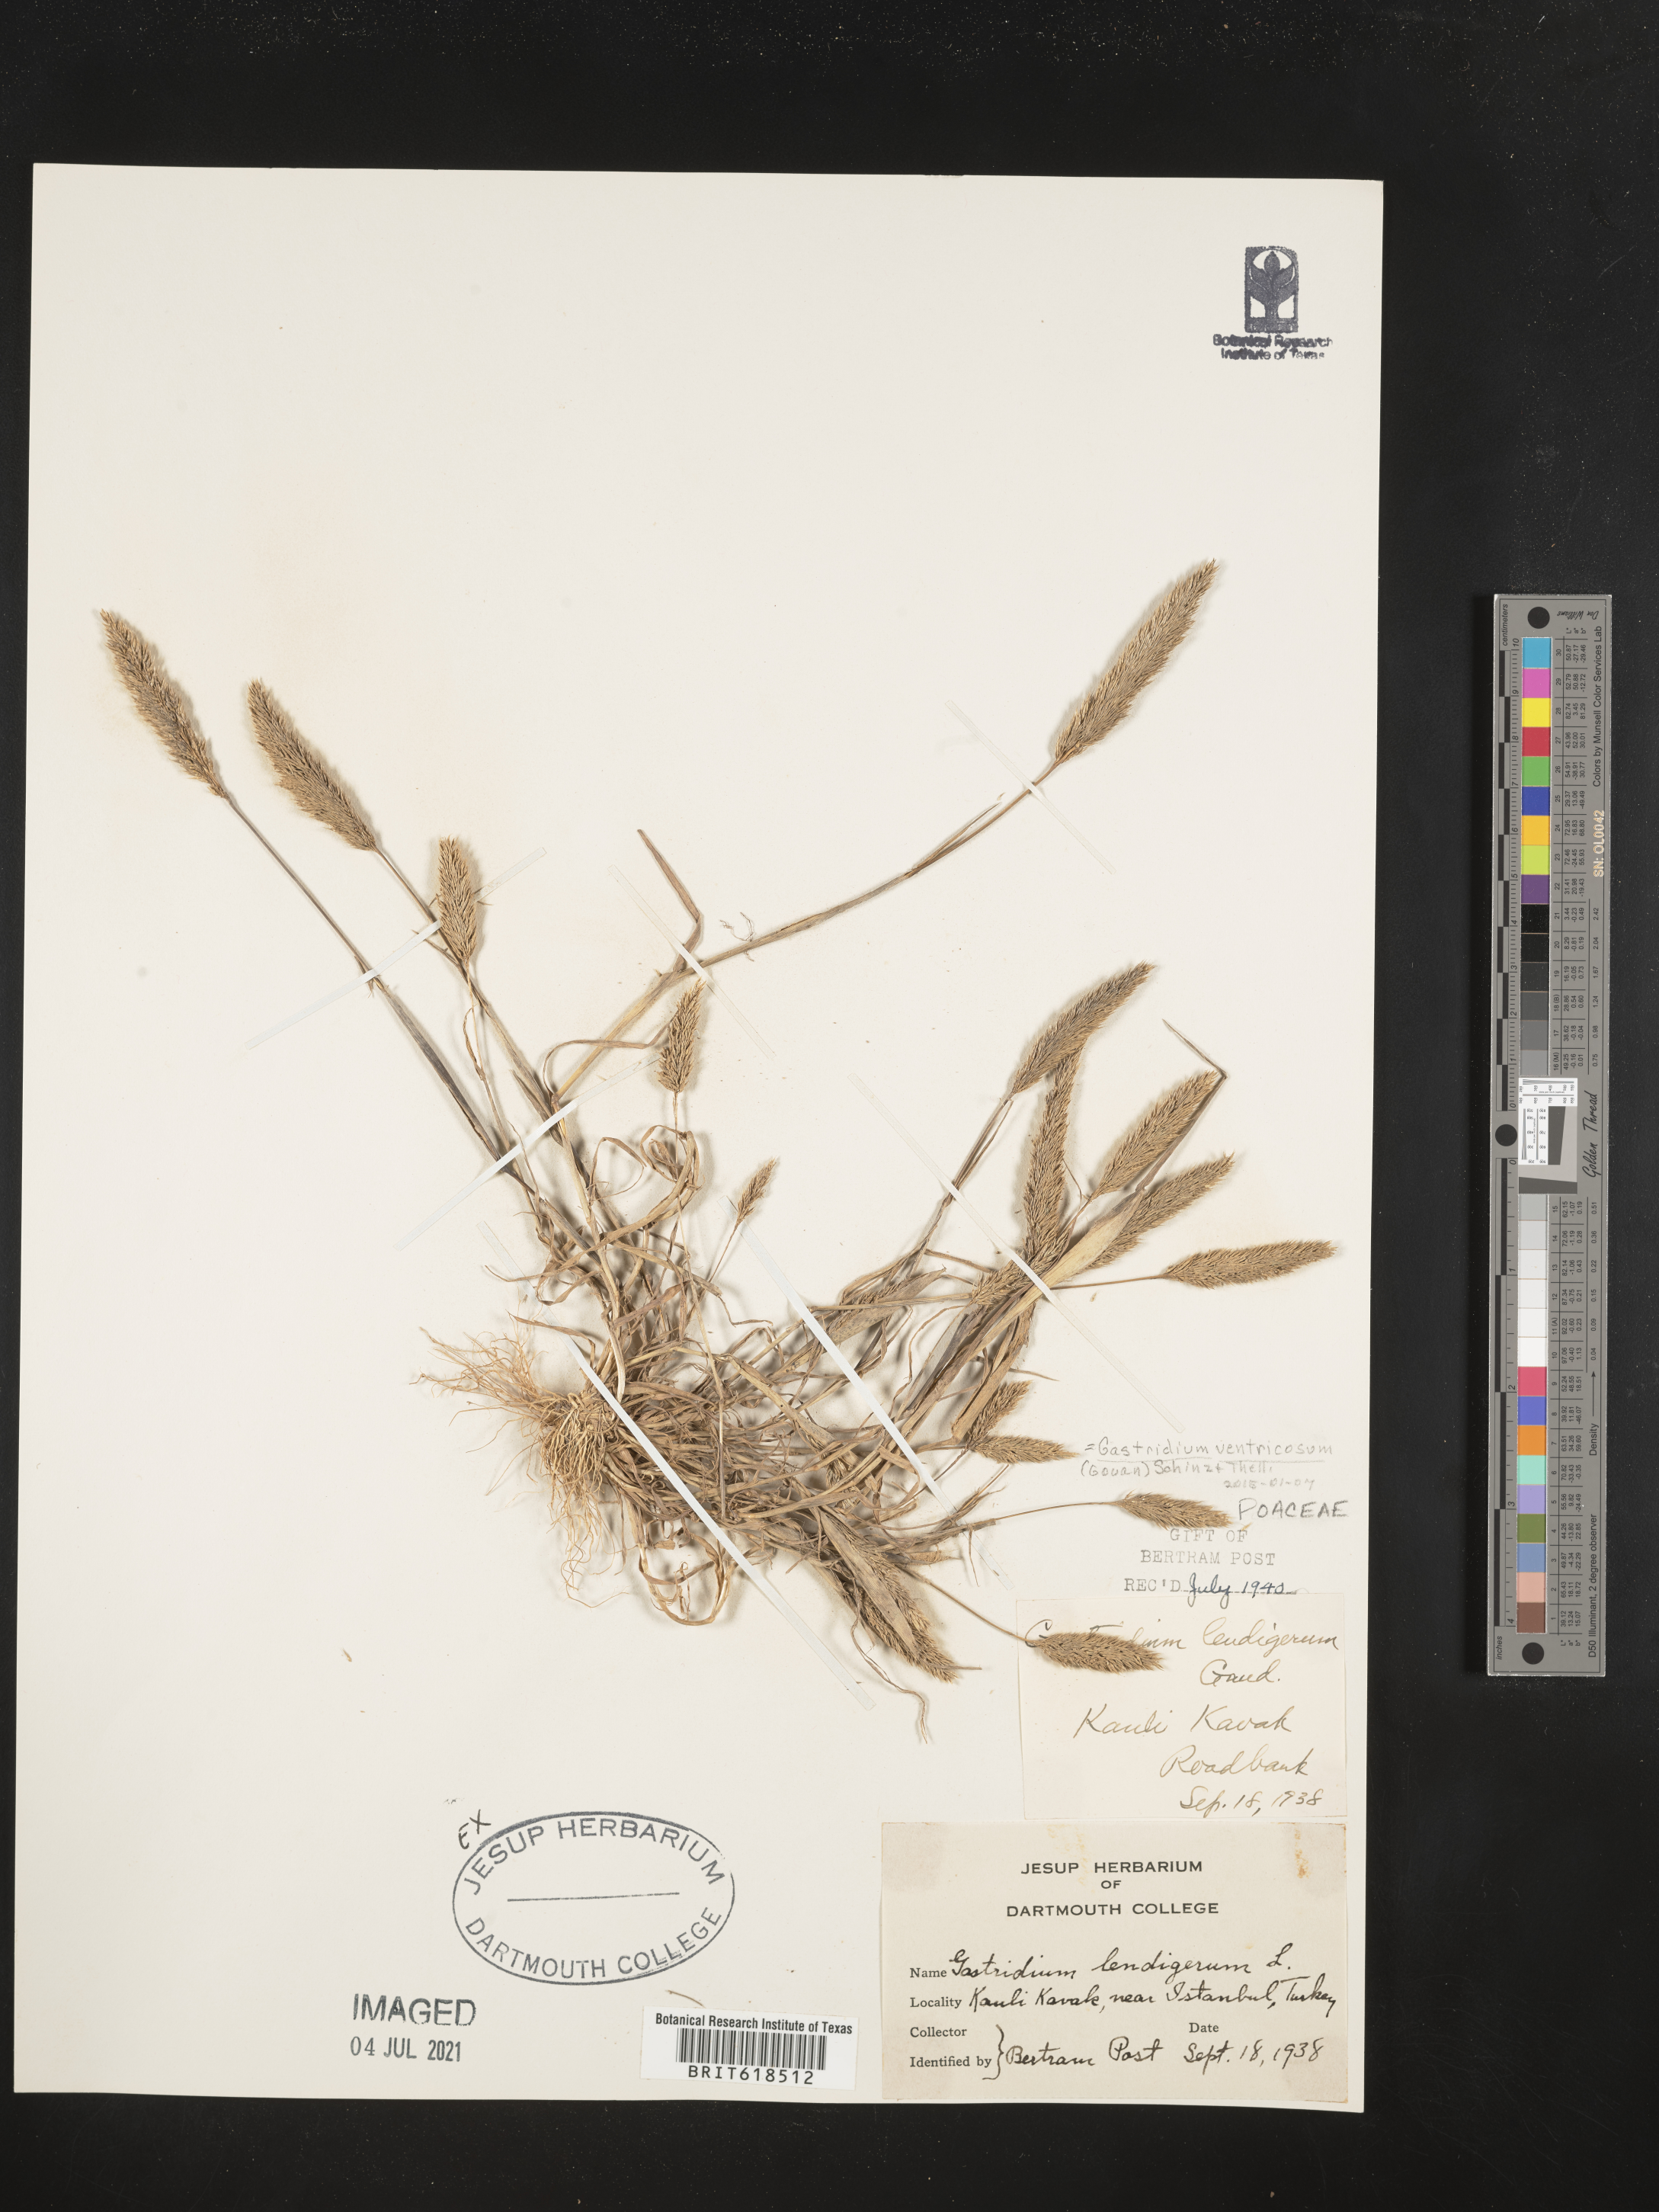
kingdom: Plantae
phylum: Tracheophyta
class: Liliopsida
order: Poales
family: Poaceae
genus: Gastridium
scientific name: Gastridium ventricosum
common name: Nit-grass
